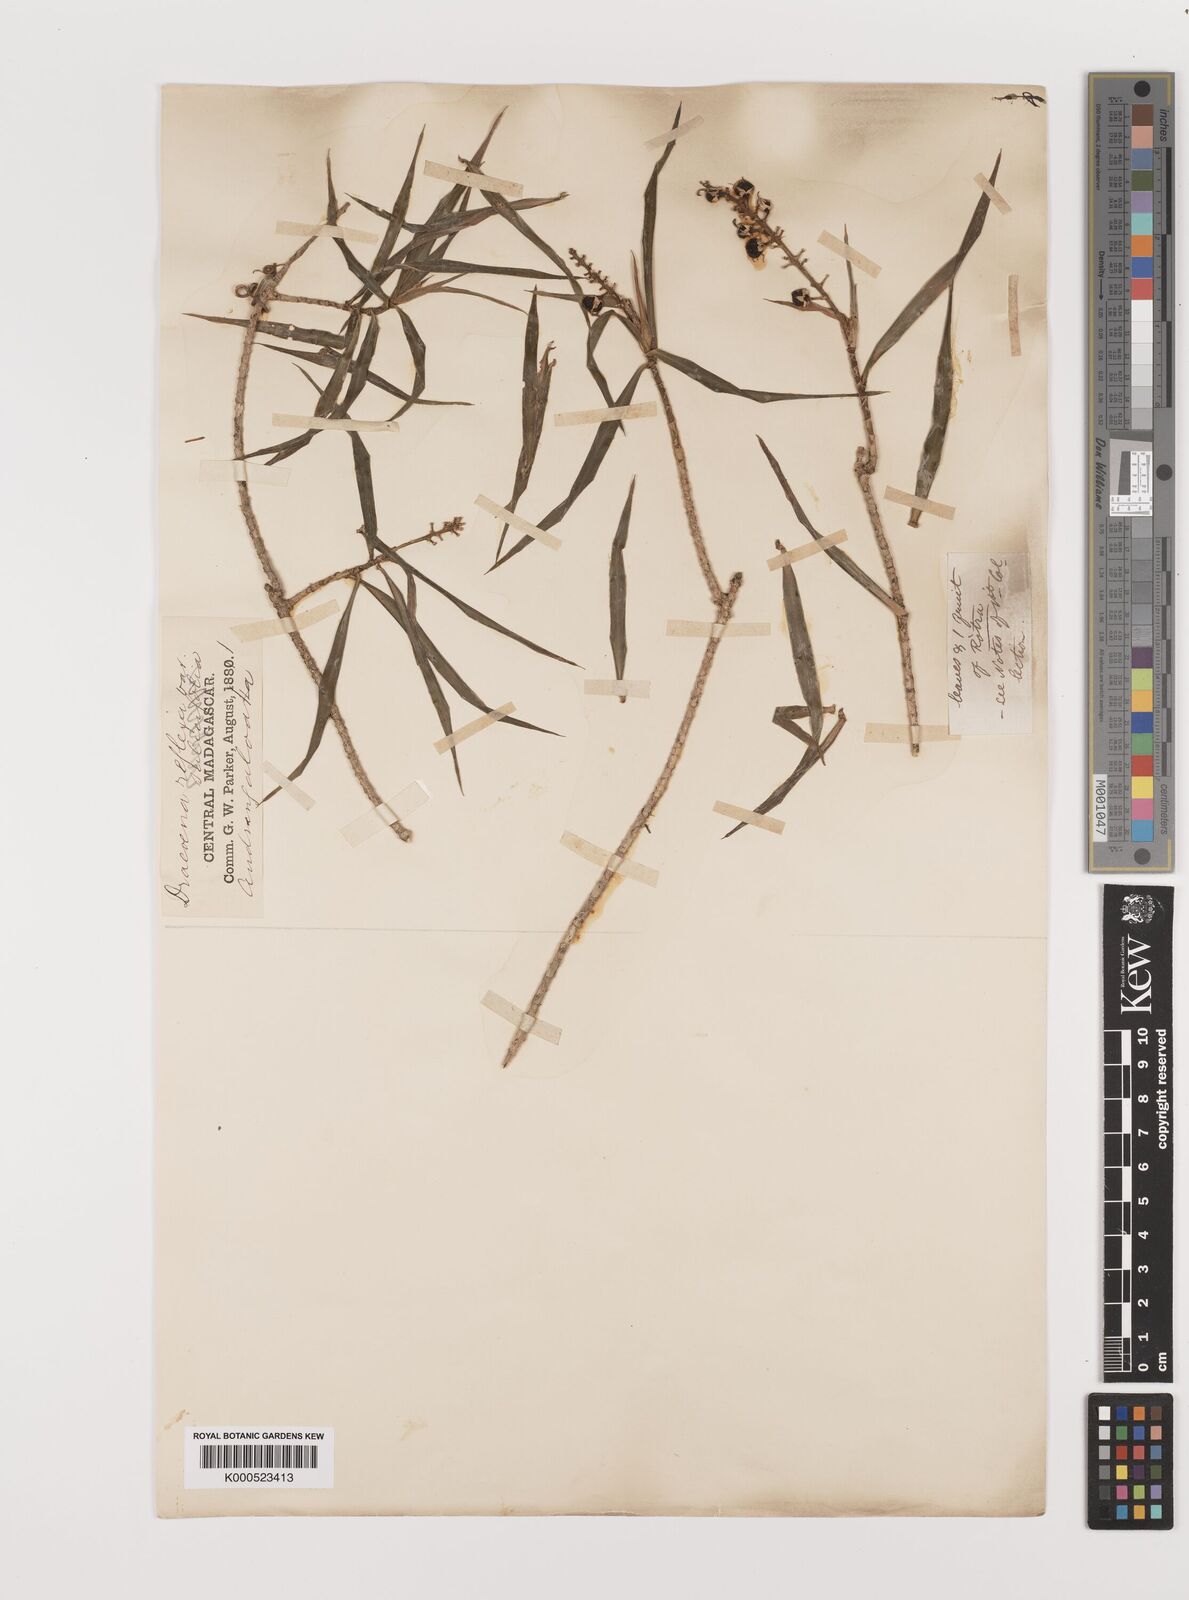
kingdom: Plantae
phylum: Tracheophyta
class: Liliopsida
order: Asparagales
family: Asparagaceae
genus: Dracaena
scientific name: Dracaena reflexa
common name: Song-of-india
